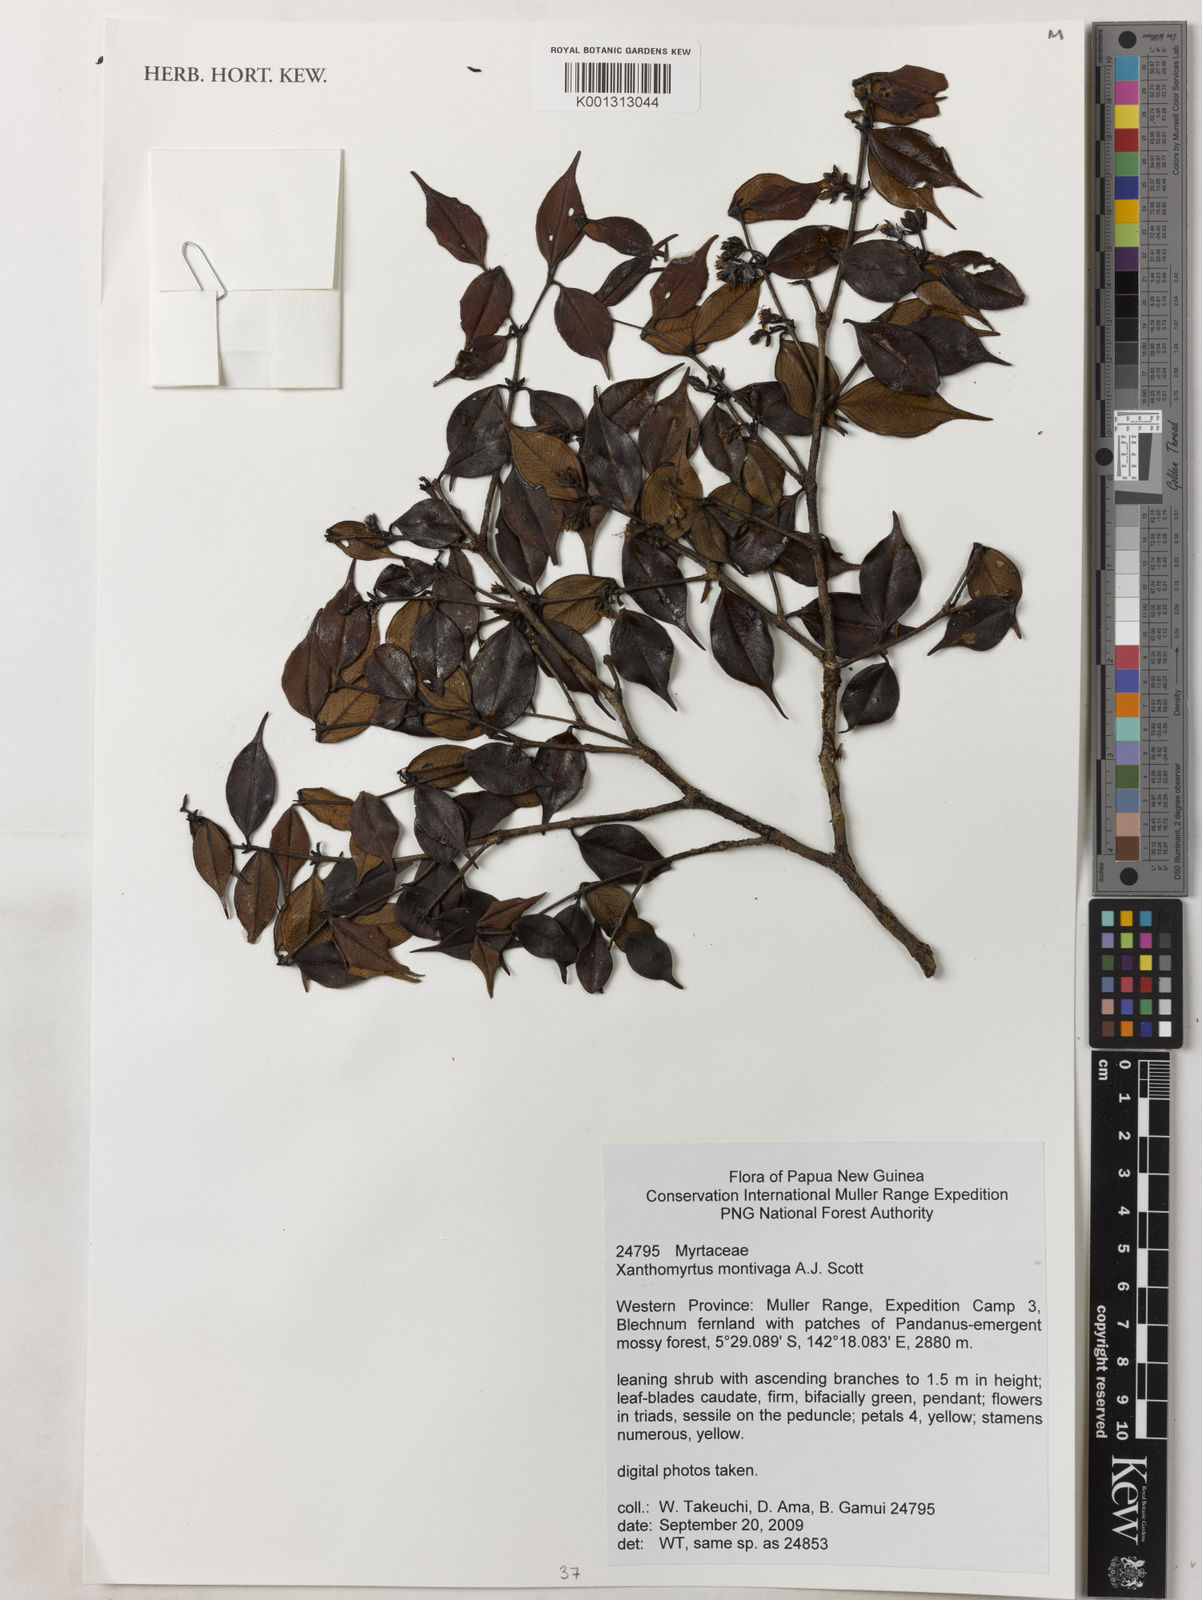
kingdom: Plantae
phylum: Tracheophyta
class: Magnoliopsida
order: Myrtales
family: Myrtaceae
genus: Xanthomyrtus
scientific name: Xanthomyrtus montivaga
